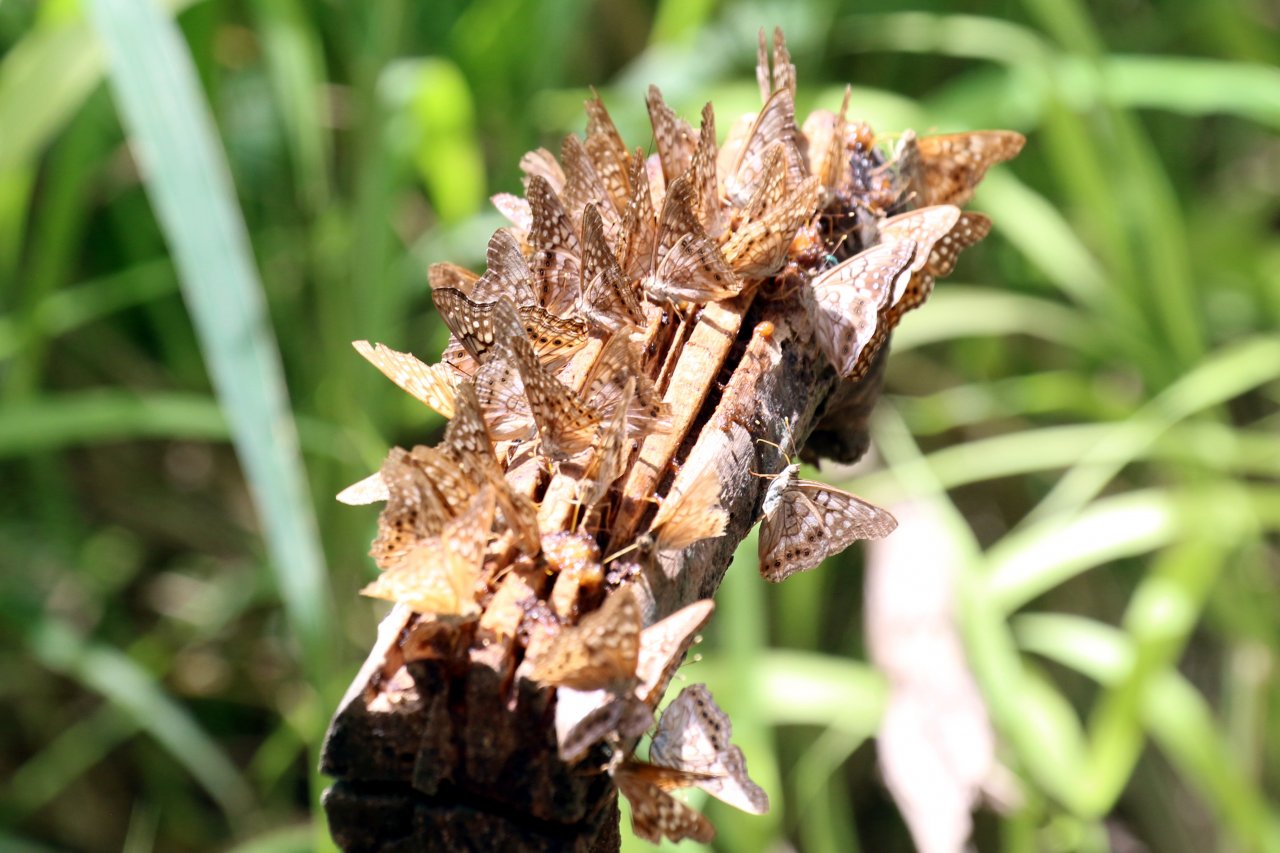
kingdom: Animalia
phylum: Arthropoda
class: Insecta
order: Lepidoptera
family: Nymphalidae
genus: Asterocampa
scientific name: Asterocampa clyton
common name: Tawny Emperor
